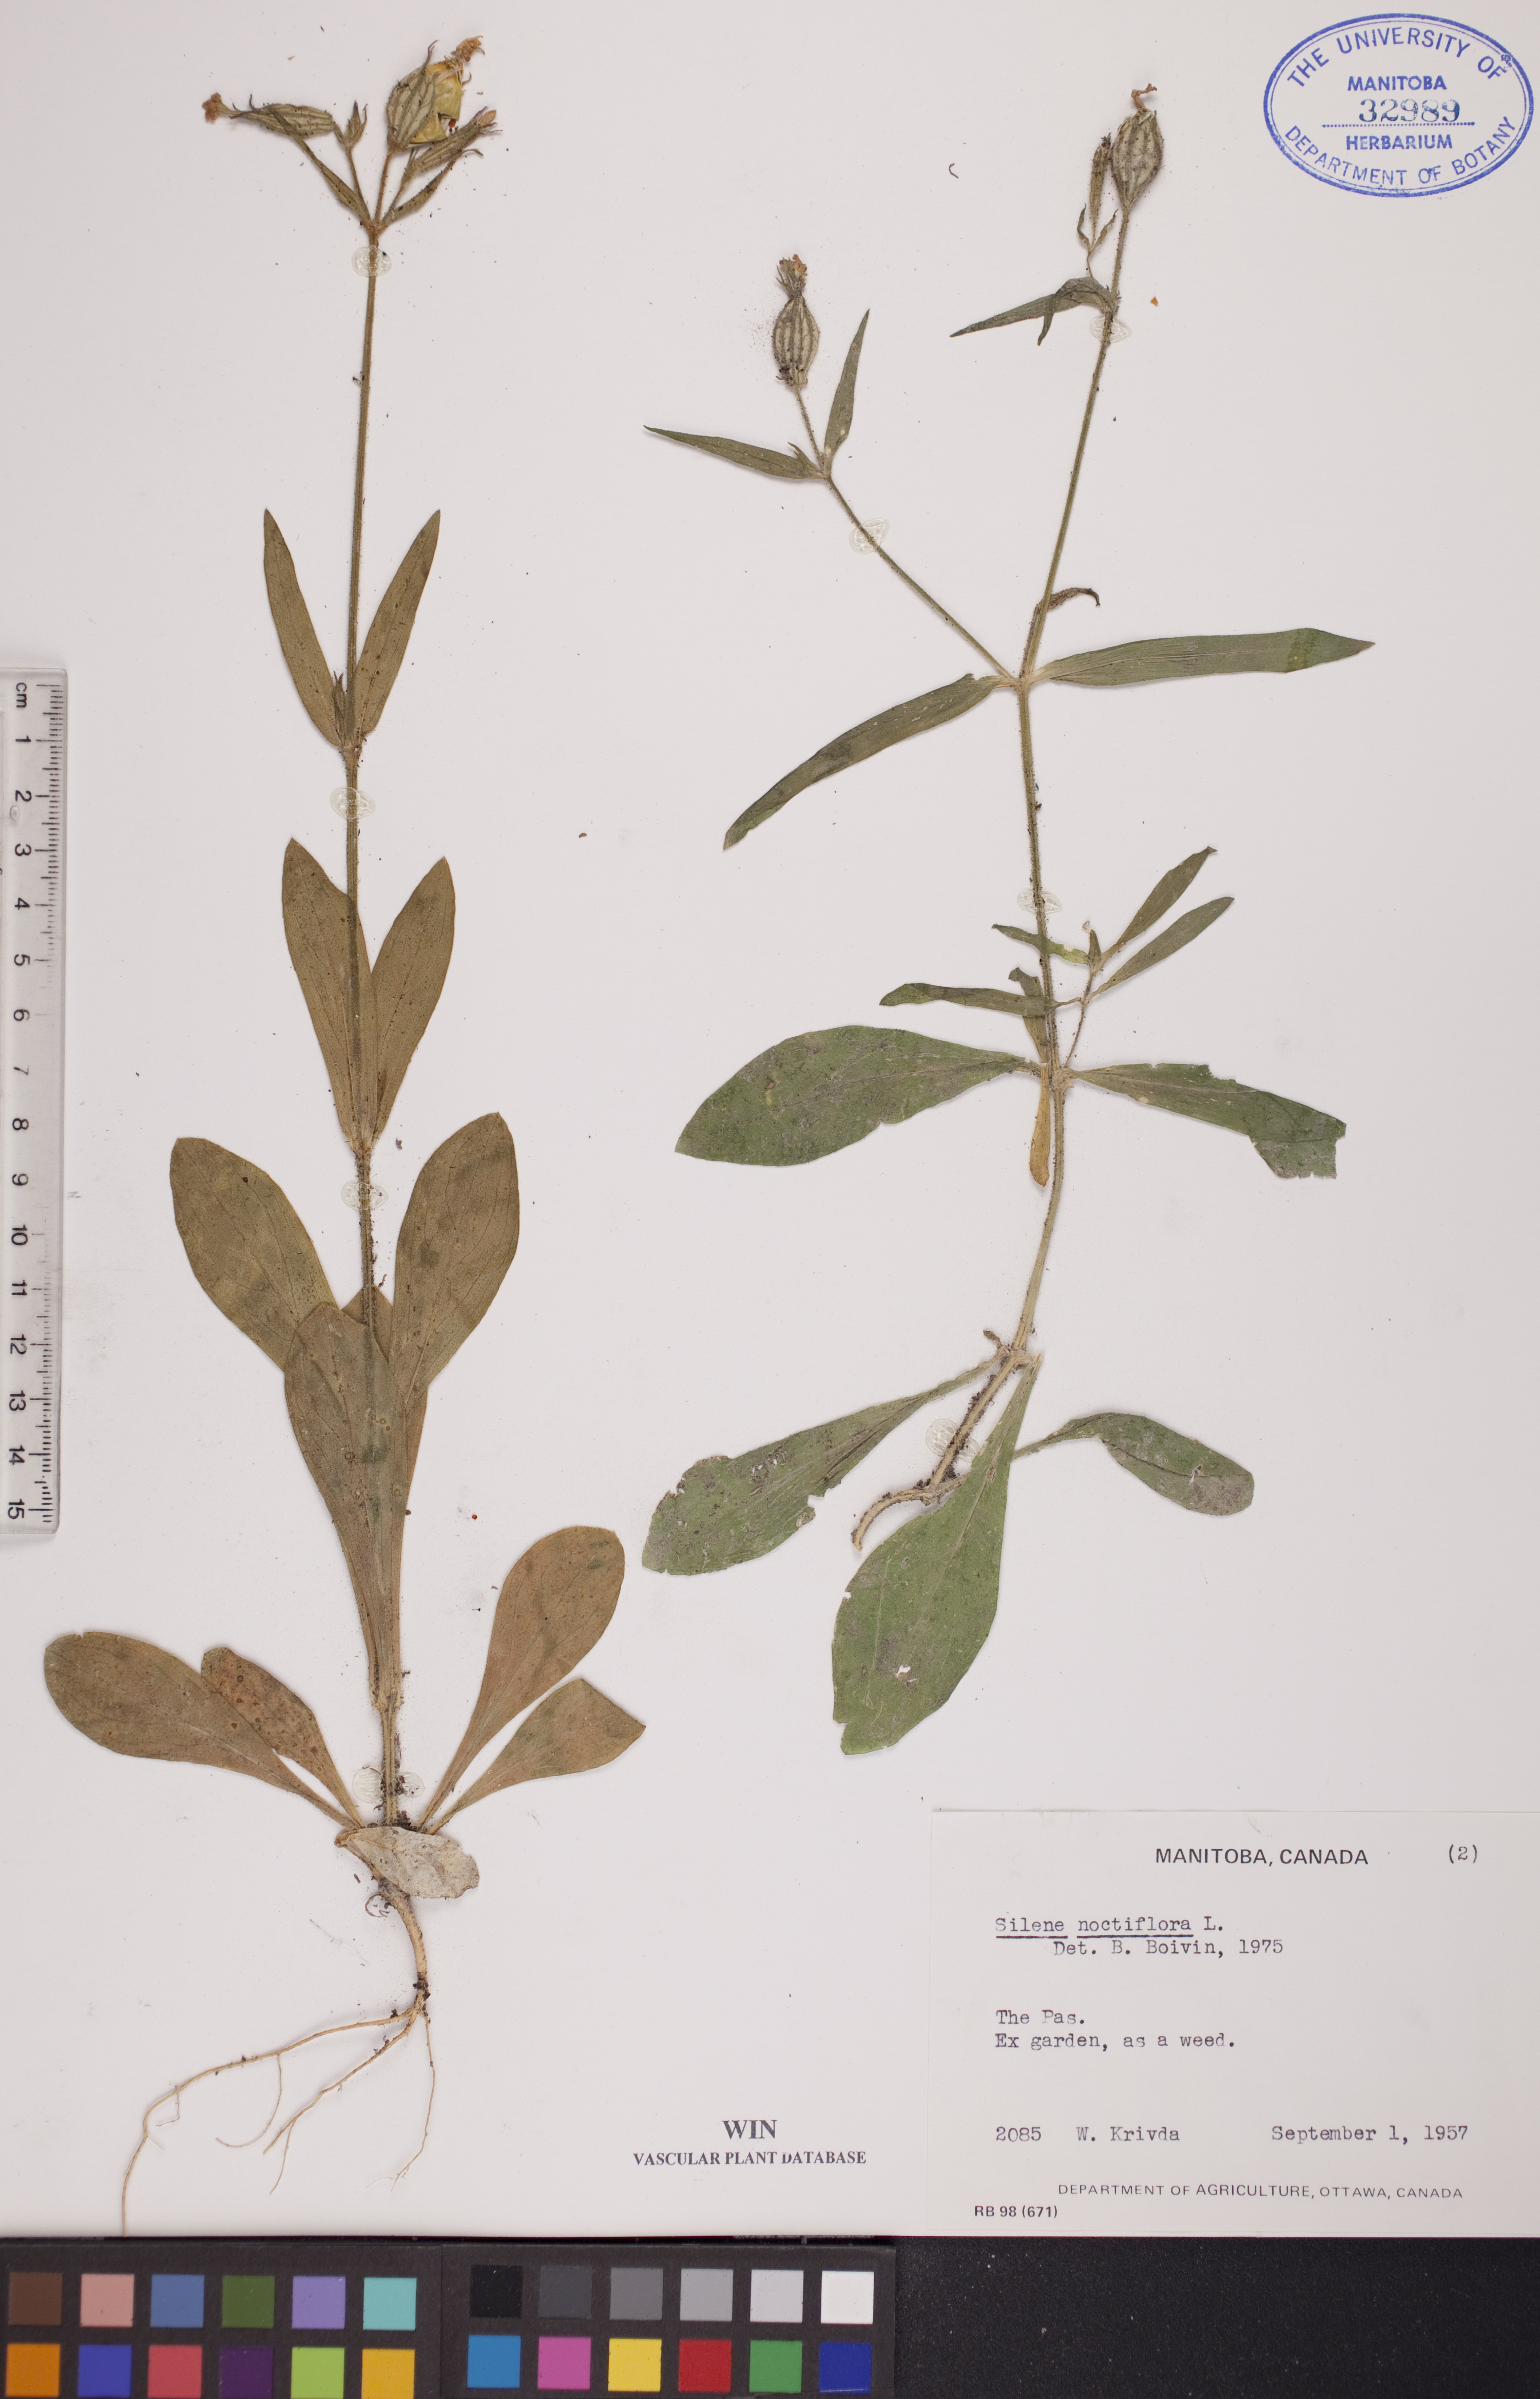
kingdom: Plantae
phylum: Tracheophyta
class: Magnoliopsida
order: Caryophyllales
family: Caryophyllaceae
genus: Silene
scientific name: Silene noctiflora
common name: Night-flowering catchfly
